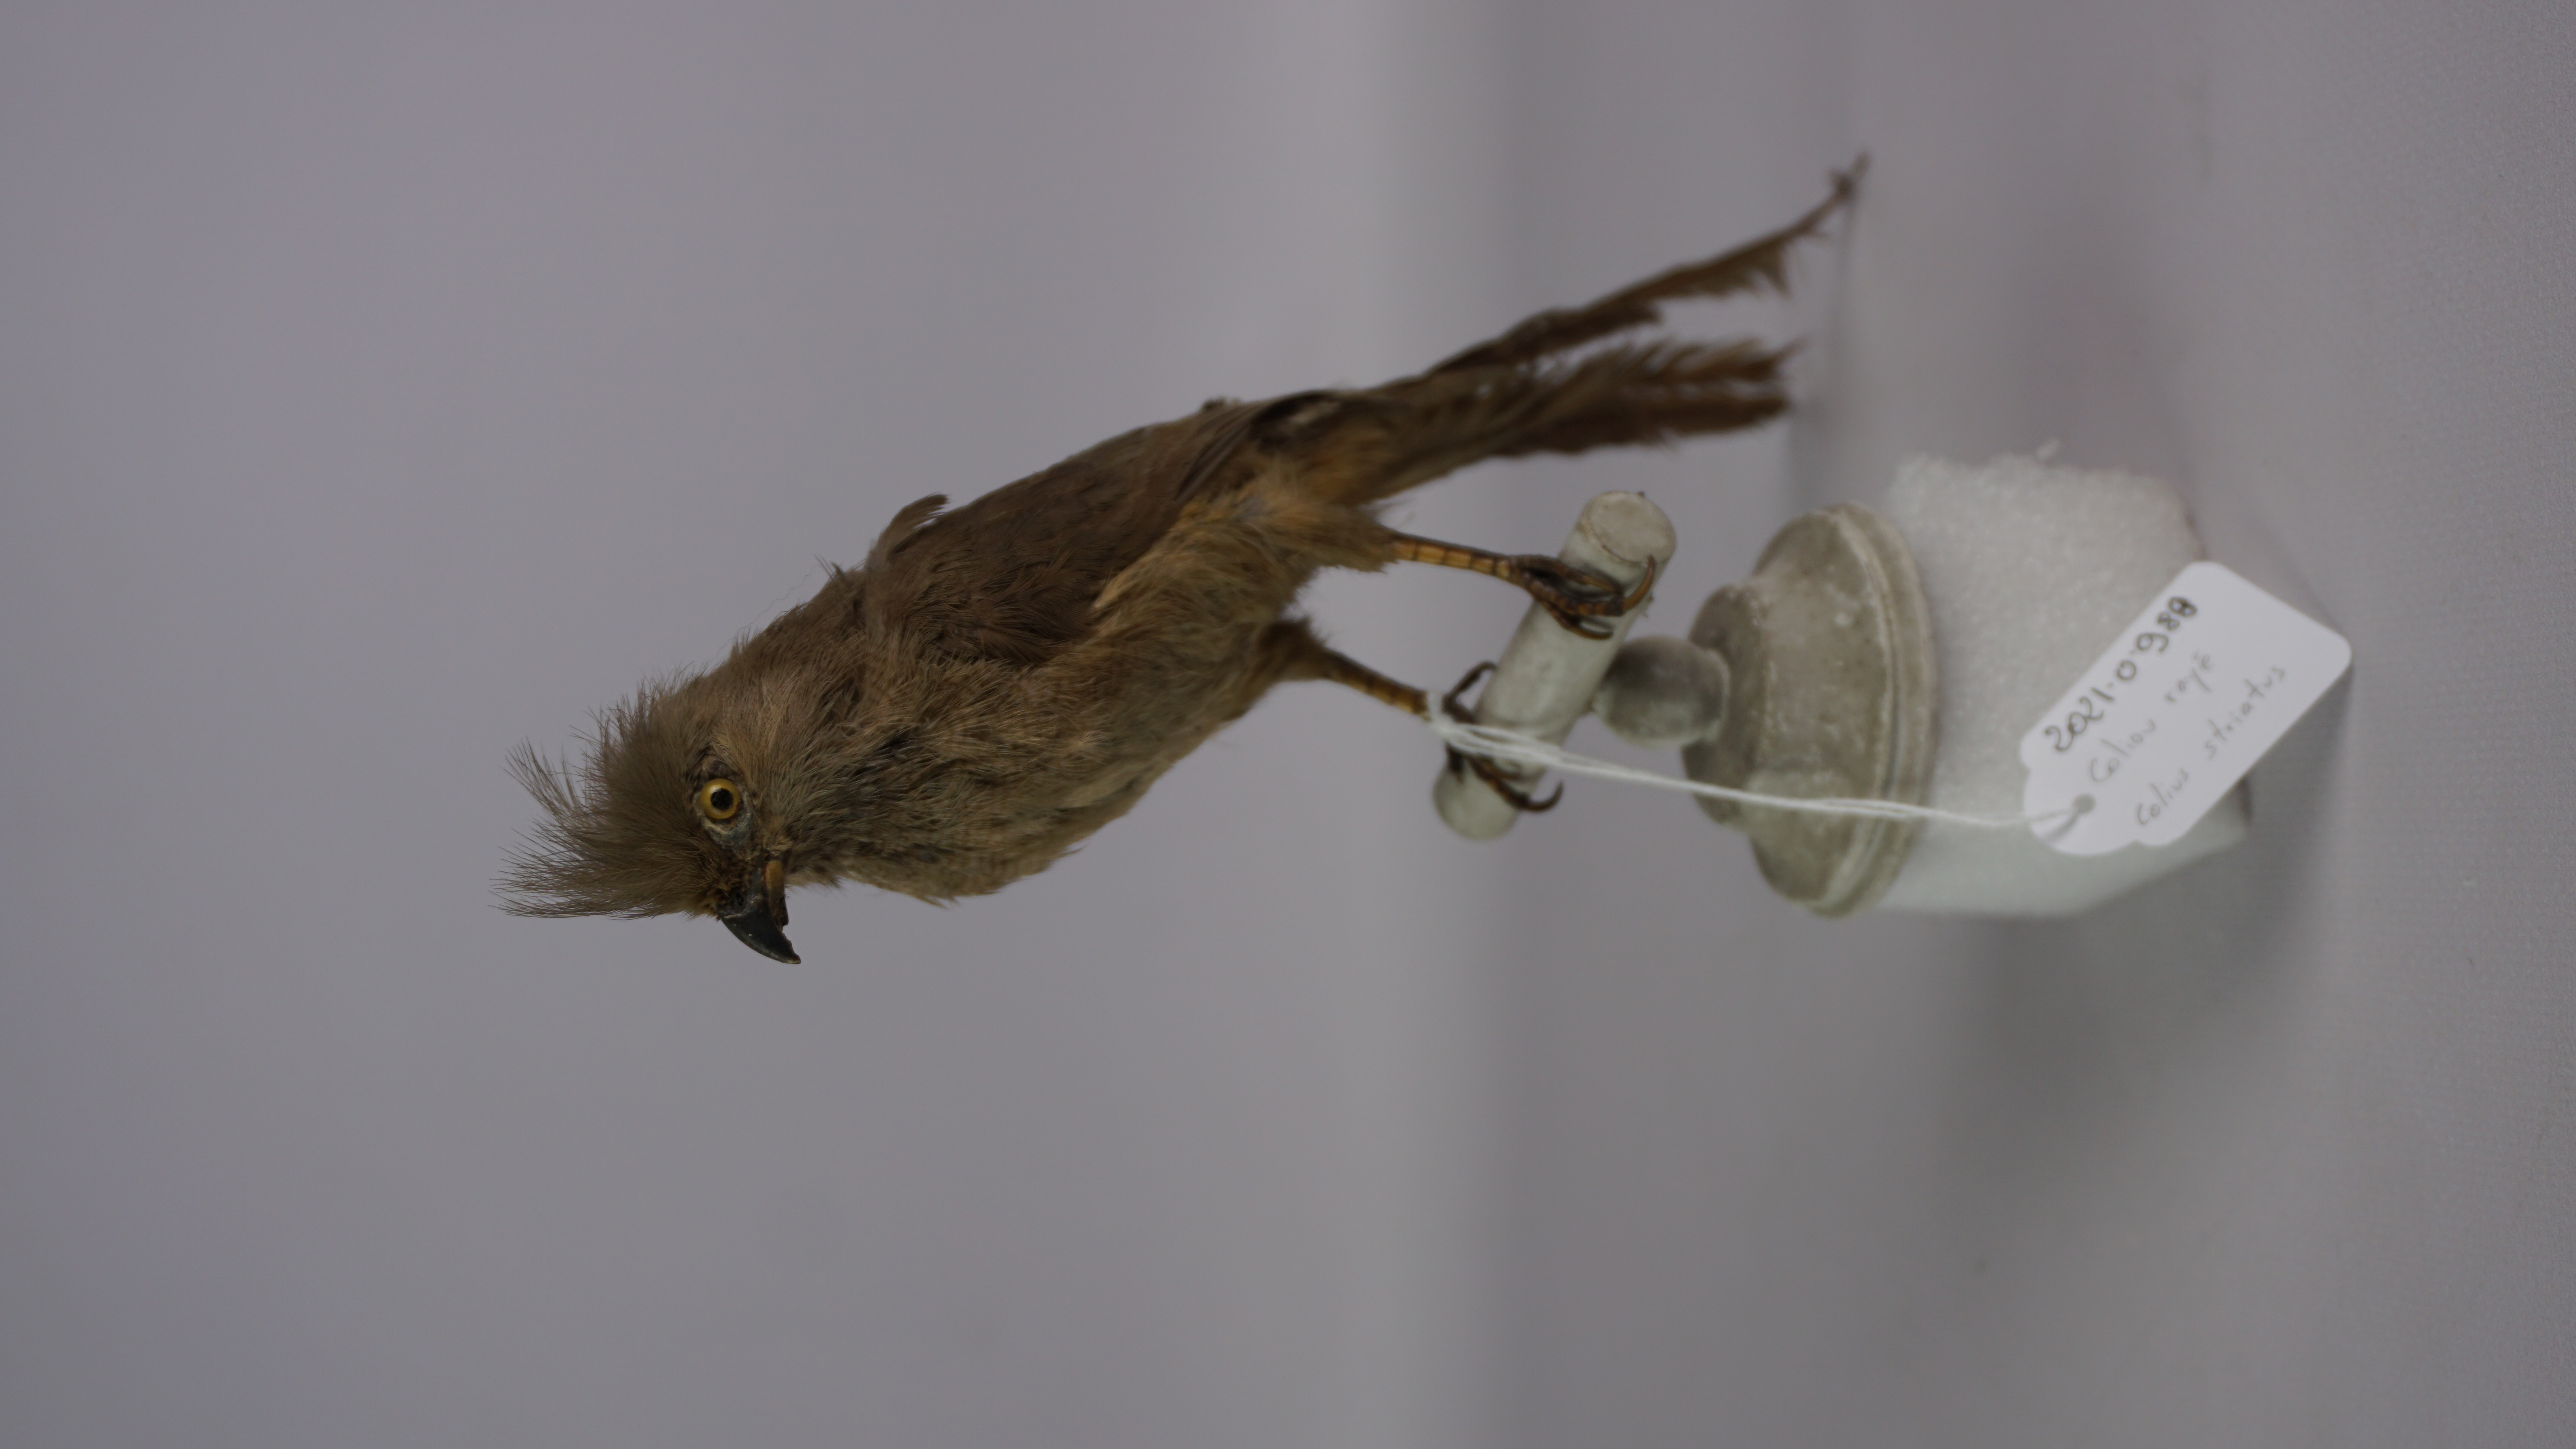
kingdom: Animalia
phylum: Chordata
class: Aves
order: Coliiformes
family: Coliidae
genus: Colius
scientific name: Colius striatus
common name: Speckled mousebird
